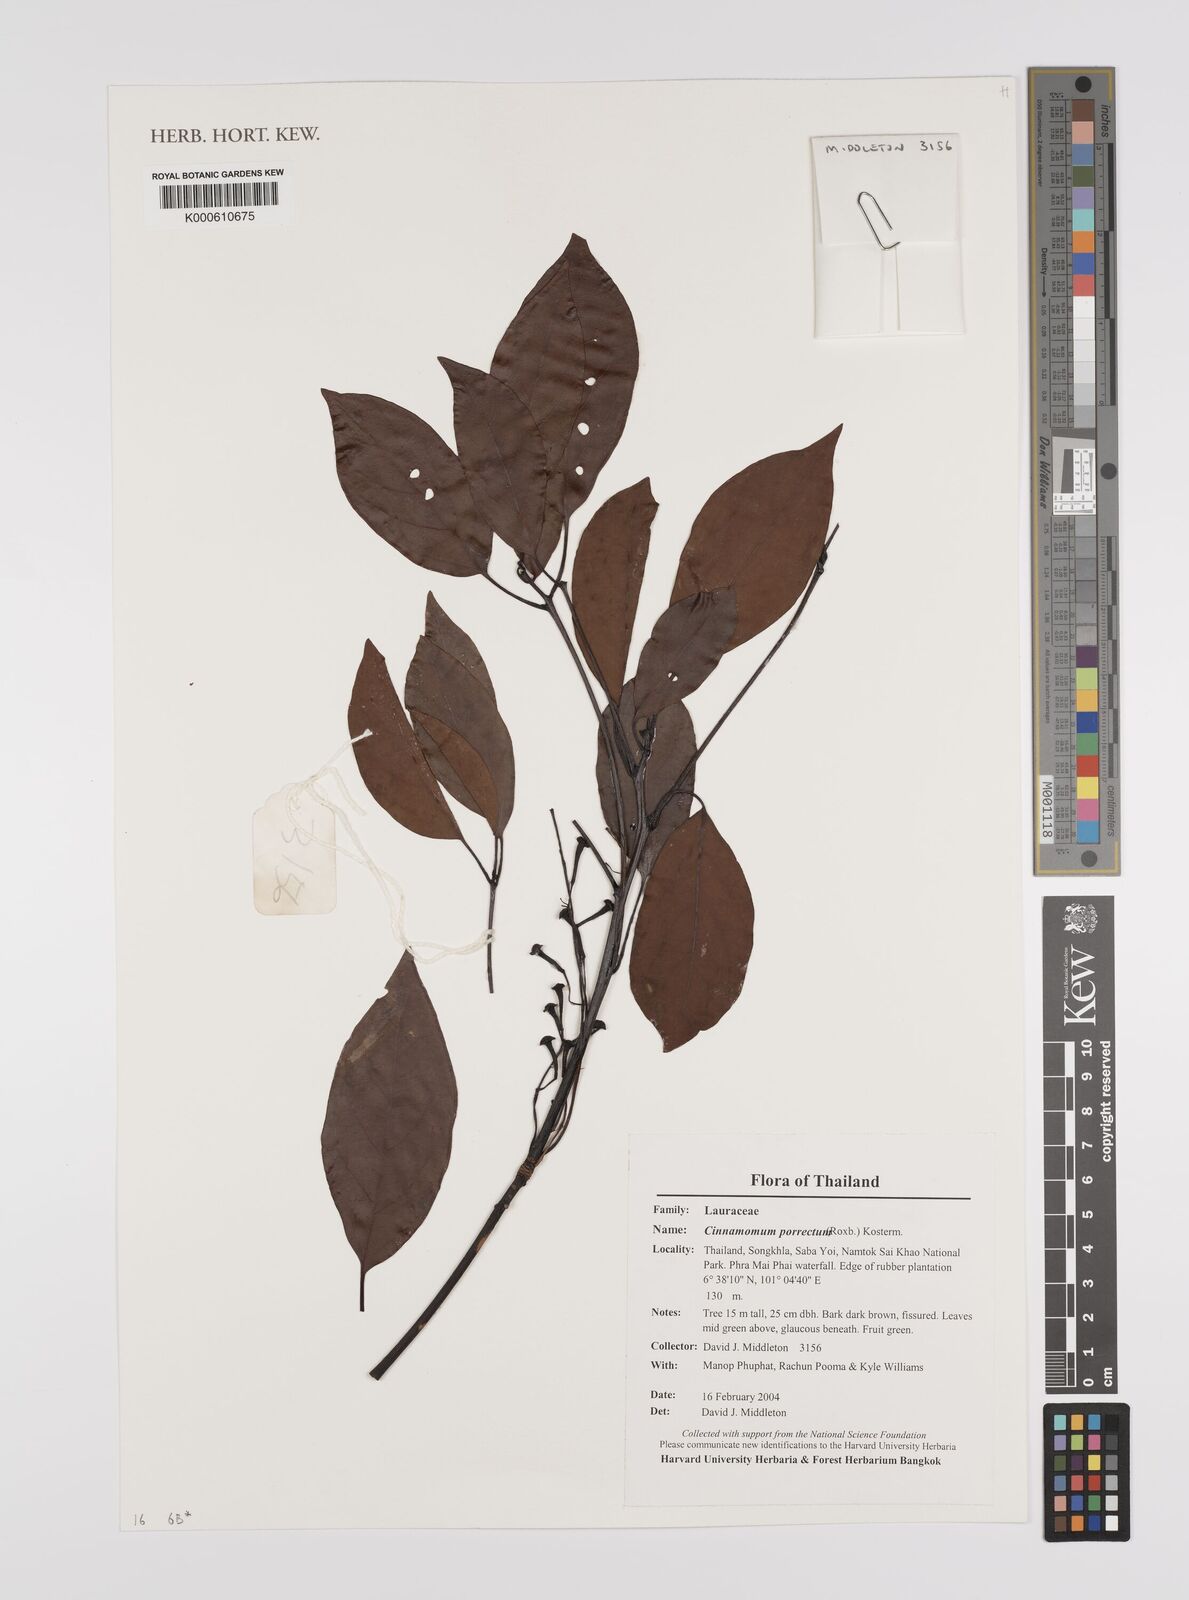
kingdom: Plantae
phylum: Tracheophyta
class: Magnoliopsida
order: Laurales
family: Lauraceae
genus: Cinnamomum
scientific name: Cinnamomum
